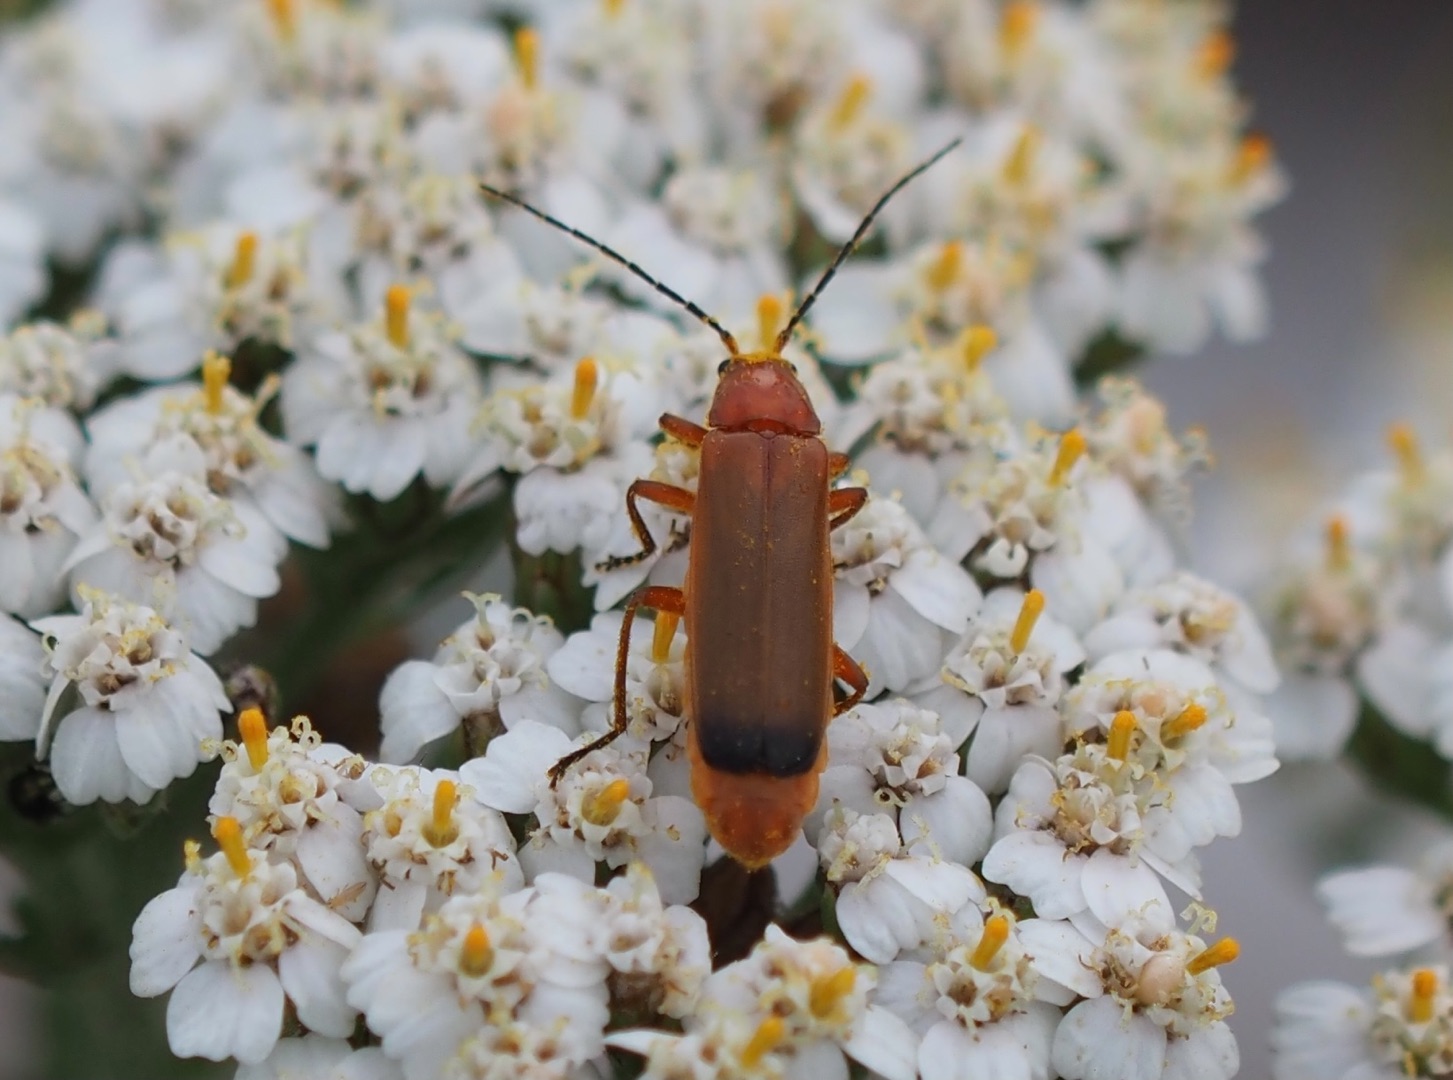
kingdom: Animalia
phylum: Arthropoda
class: Insecta
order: Coleoptera
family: Cantharidae
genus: Rhagonycha
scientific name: Rhagonycha fulva
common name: Præstebille
